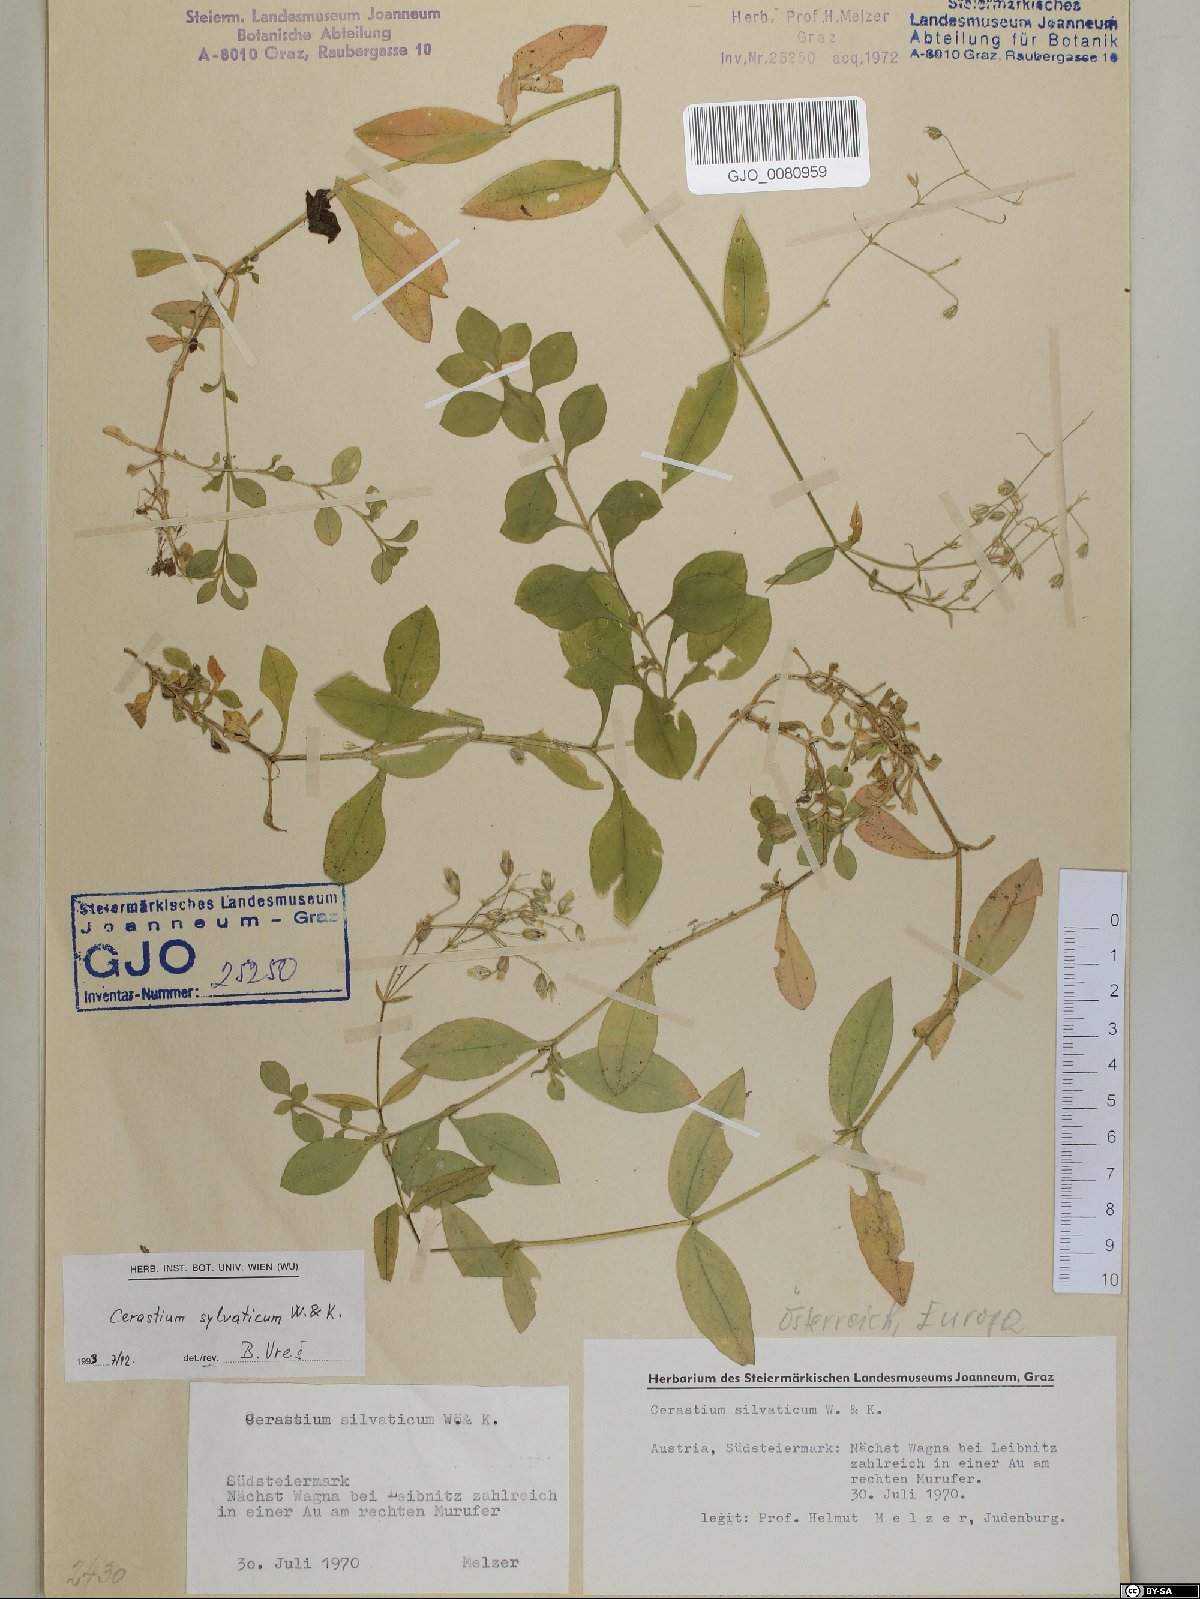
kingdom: Plantae
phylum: Tracheophyta
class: Magnoliopsida
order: Caryophyllales
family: Caryophyllaceae
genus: Cerastium
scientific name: Cerastium sylvaticum
